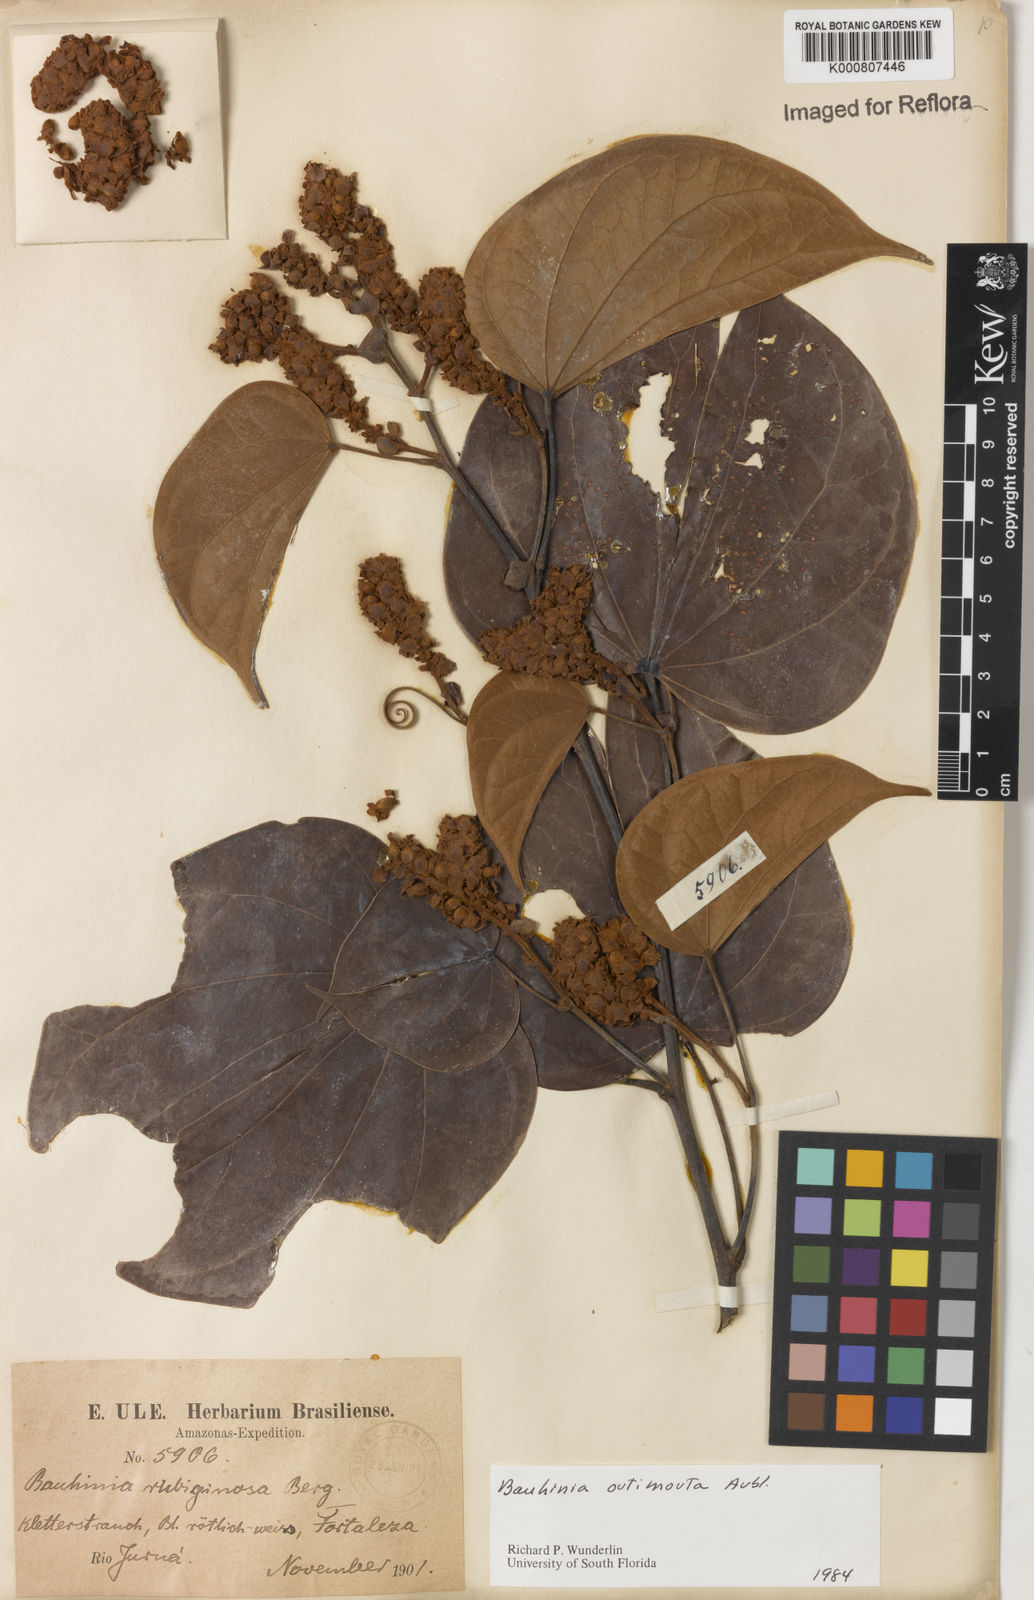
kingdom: Plantae
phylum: Tracheophyta
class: Magnoliopsida
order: Fabales
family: Fabaceae
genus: Schnella
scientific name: Schnella outimouta
